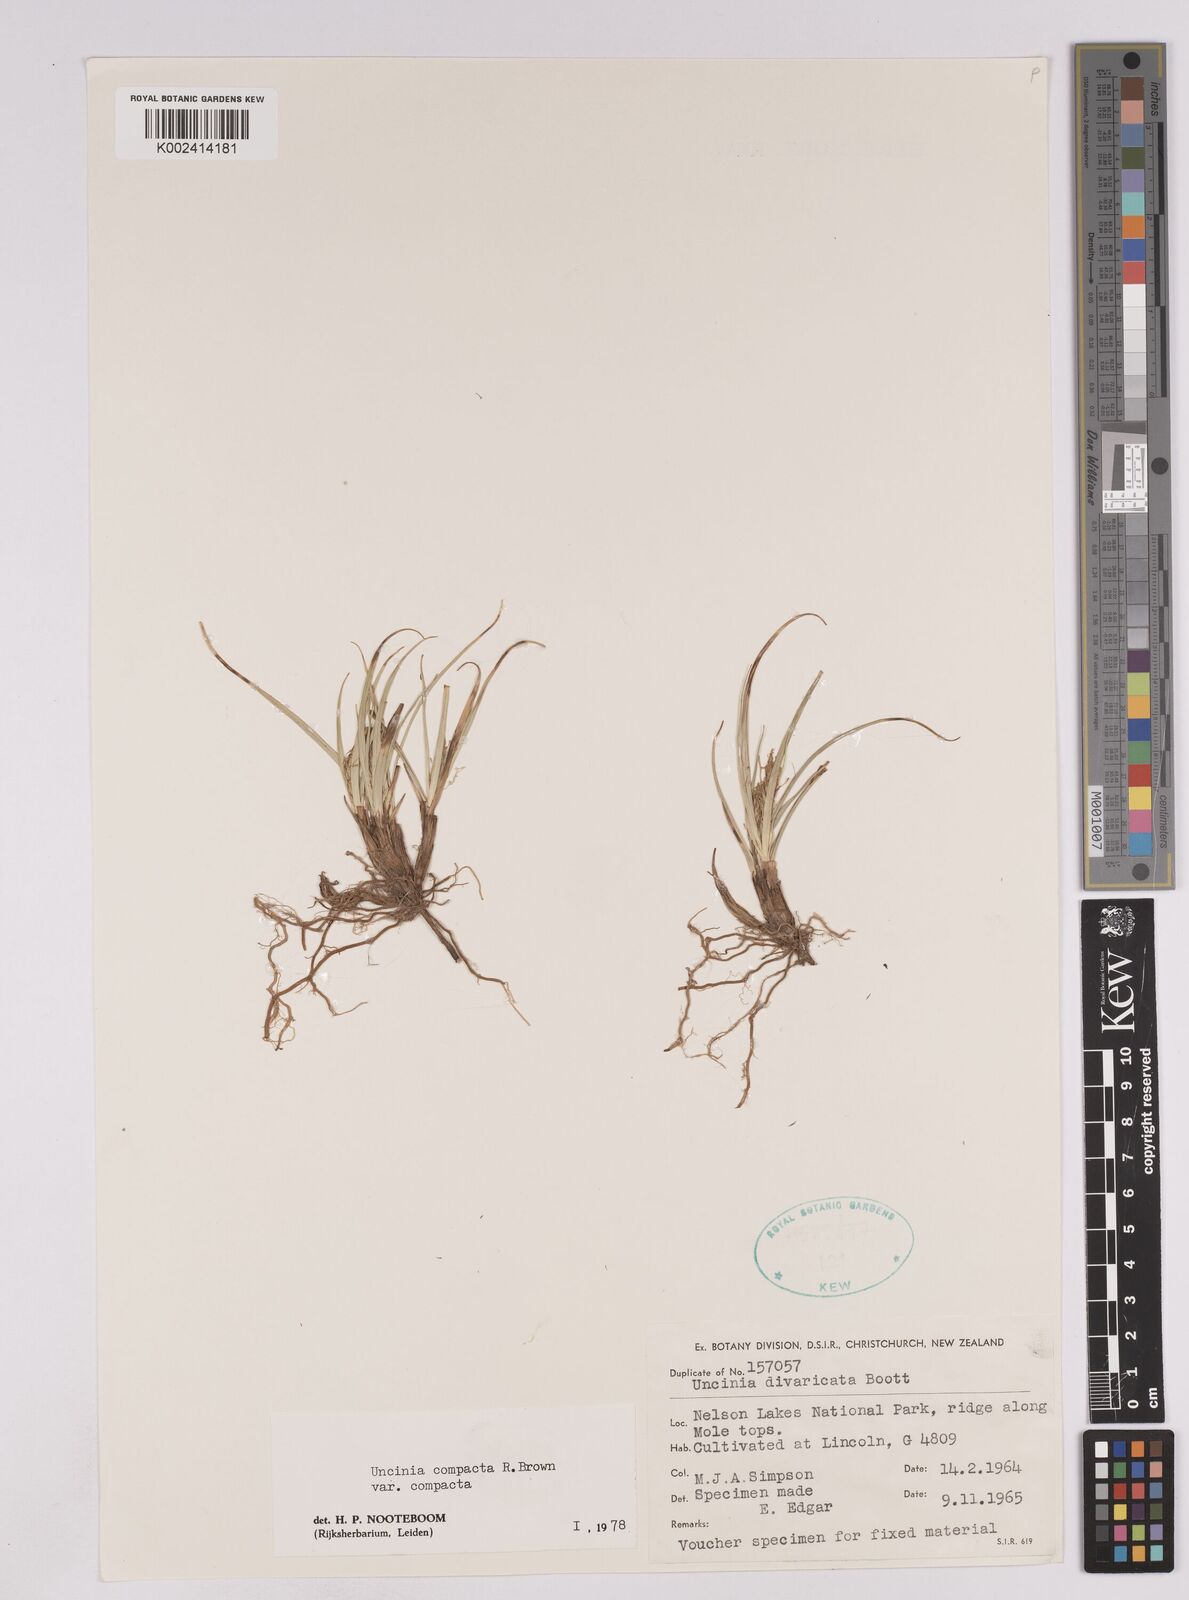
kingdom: Plantae
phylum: Tracheophyta
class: Liliopsida
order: Poales
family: Cyperaceae
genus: Carex
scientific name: Carex austrocompacta
